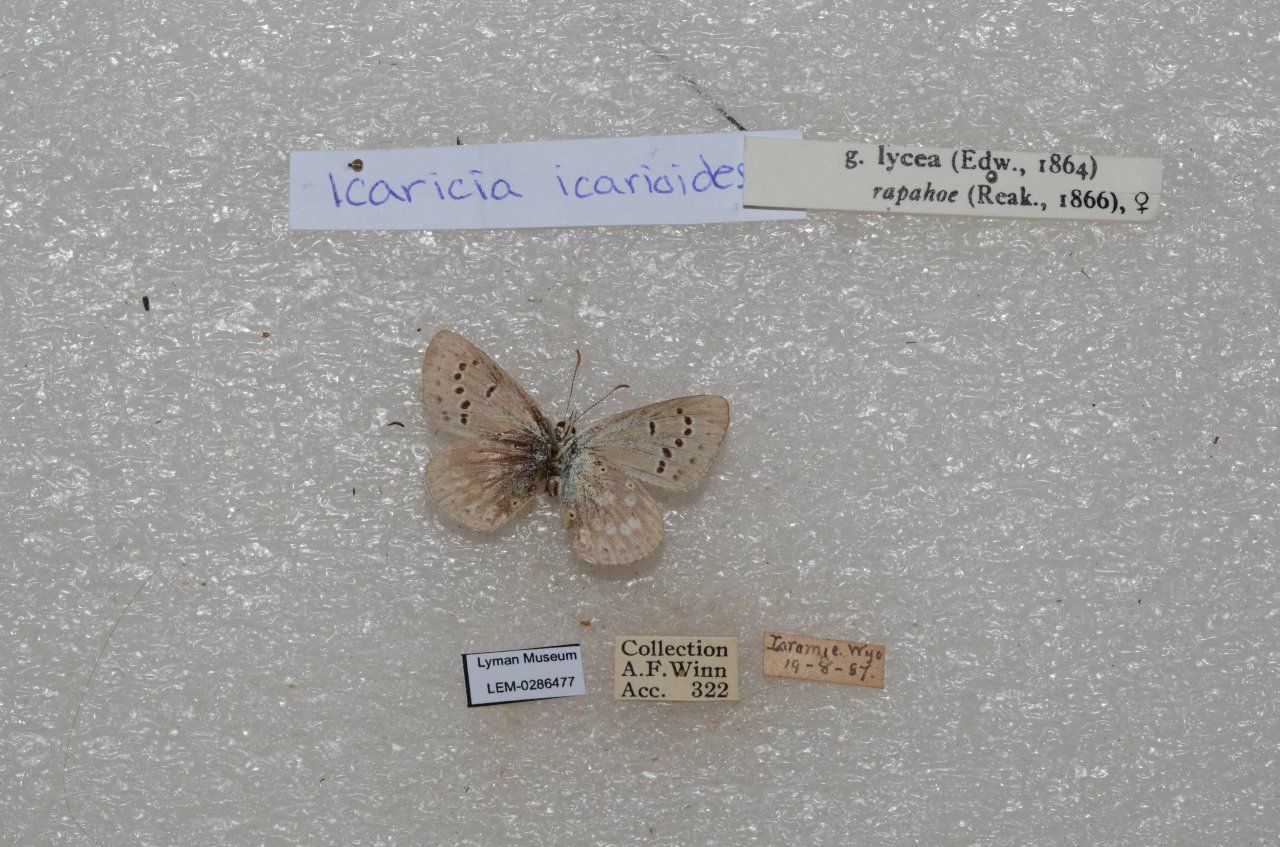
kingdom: Animalia
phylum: Arthropoda
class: Insecta
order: Lepidoptera
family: Lycaenidae
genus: Icaricia
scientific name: Icaricia icarioides
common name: Boisduval's Blue
